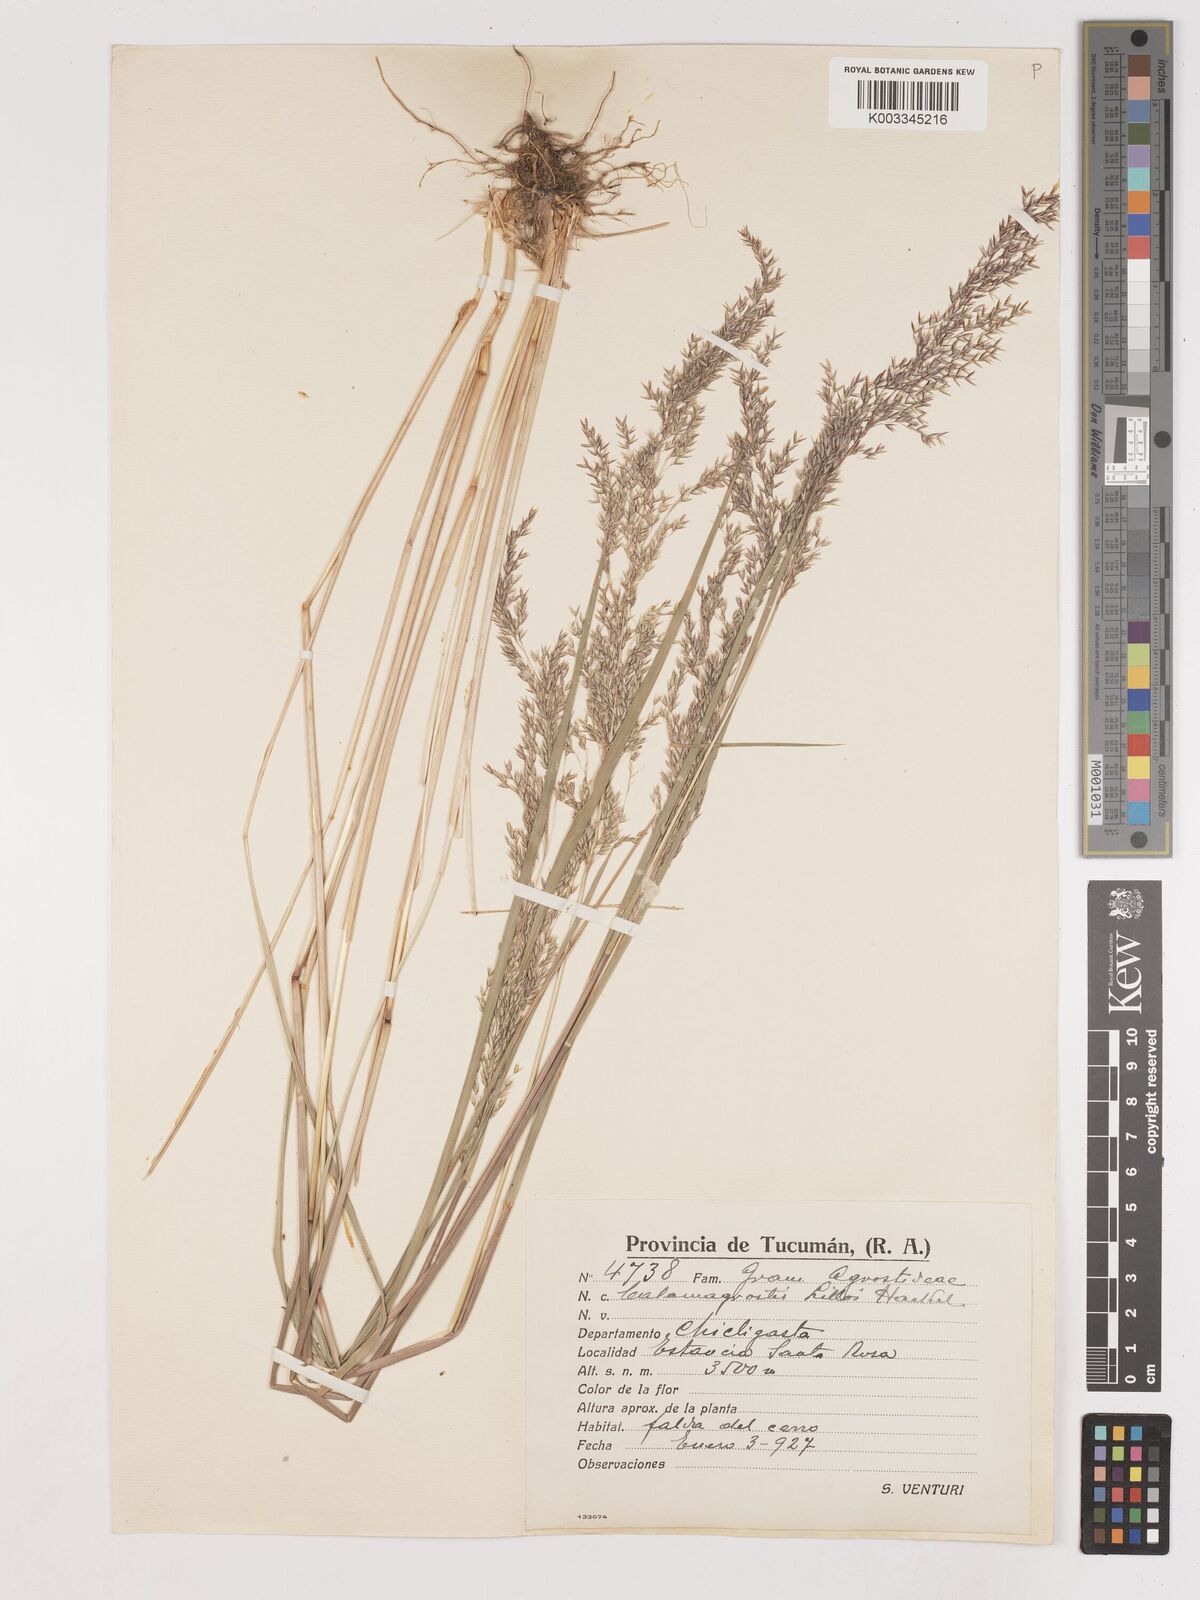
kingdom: Plantae
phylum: Tracheophyta
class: Liliopsida
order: Poales
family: Poaceae
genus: Cinnagrostis
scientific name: Cinnagrostis polygama
